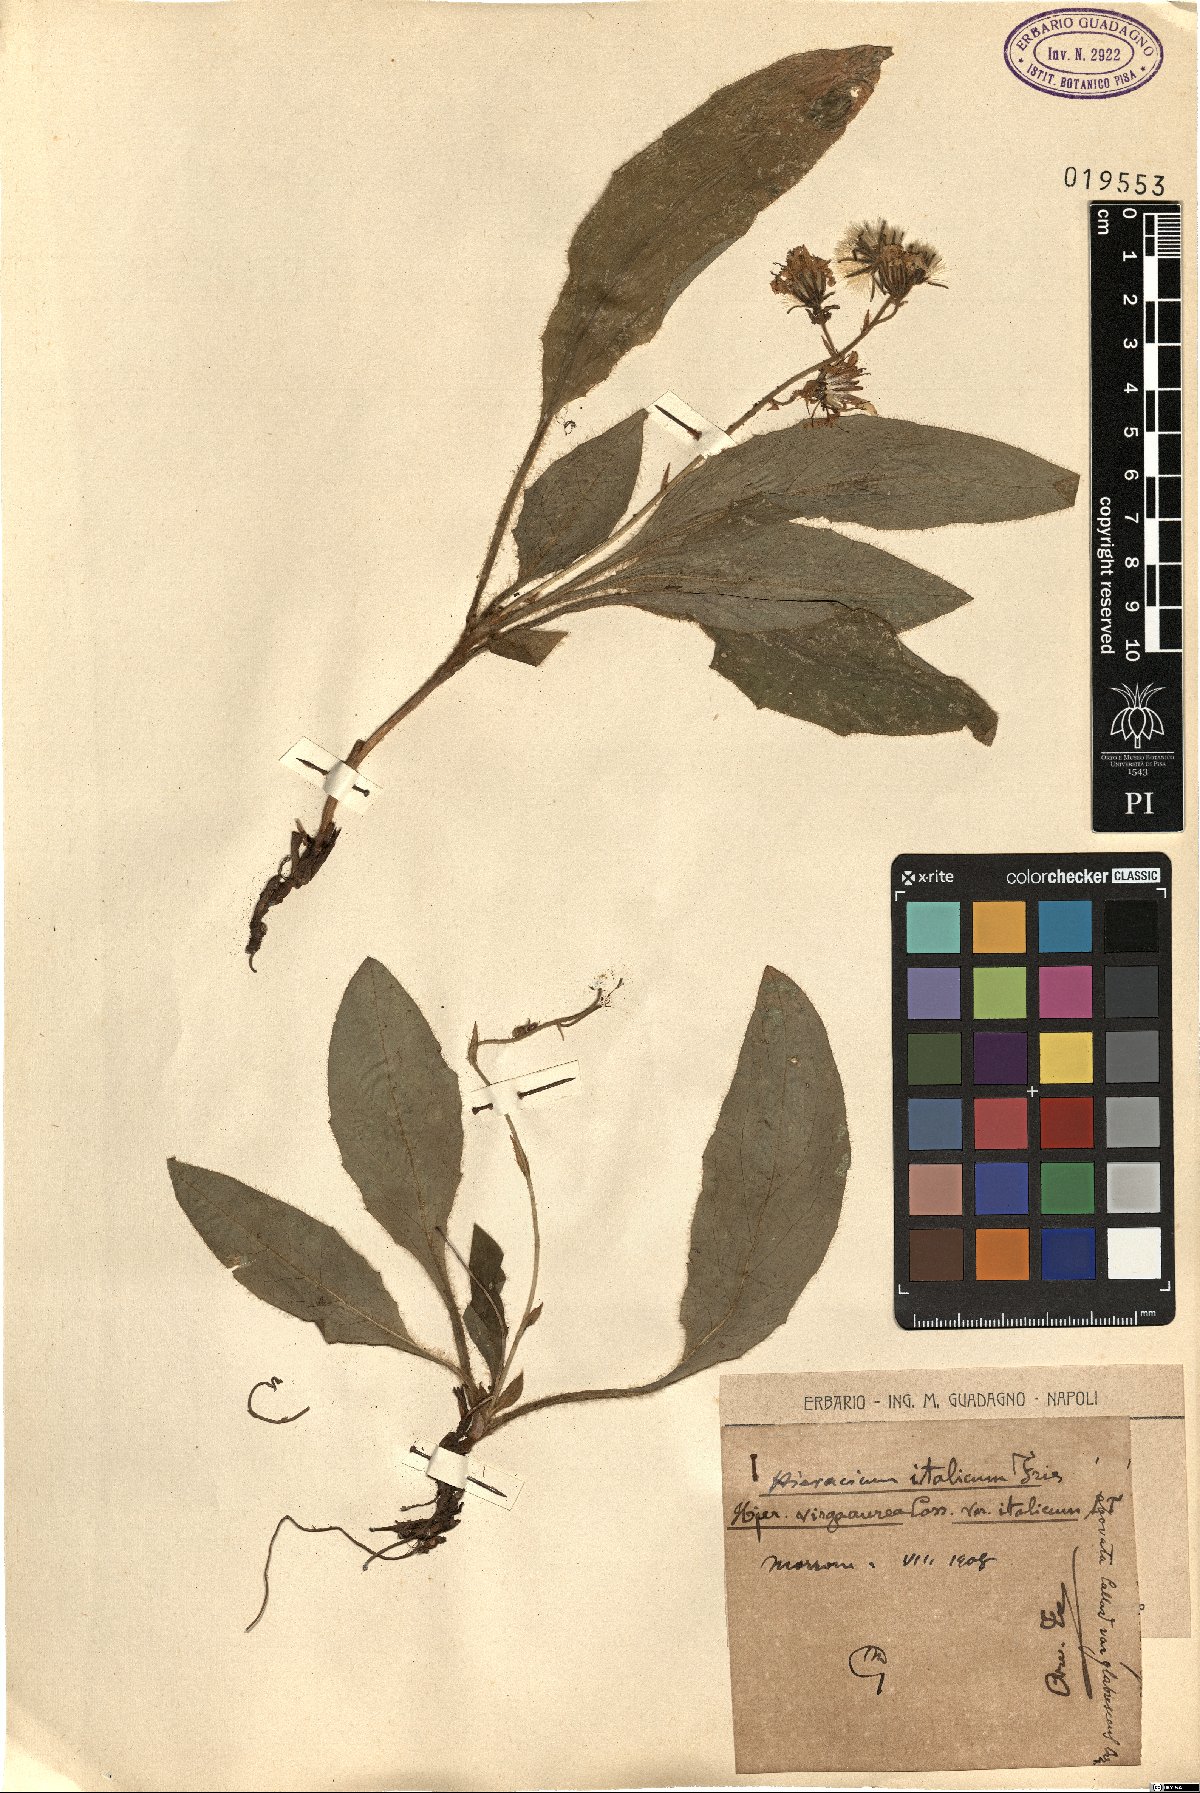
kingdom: Plantae
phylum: Tracheophyta
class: Magnoliopsida
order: Asterales
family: Asteraceae
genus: Hieracium
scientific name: Hieracium racemosum
